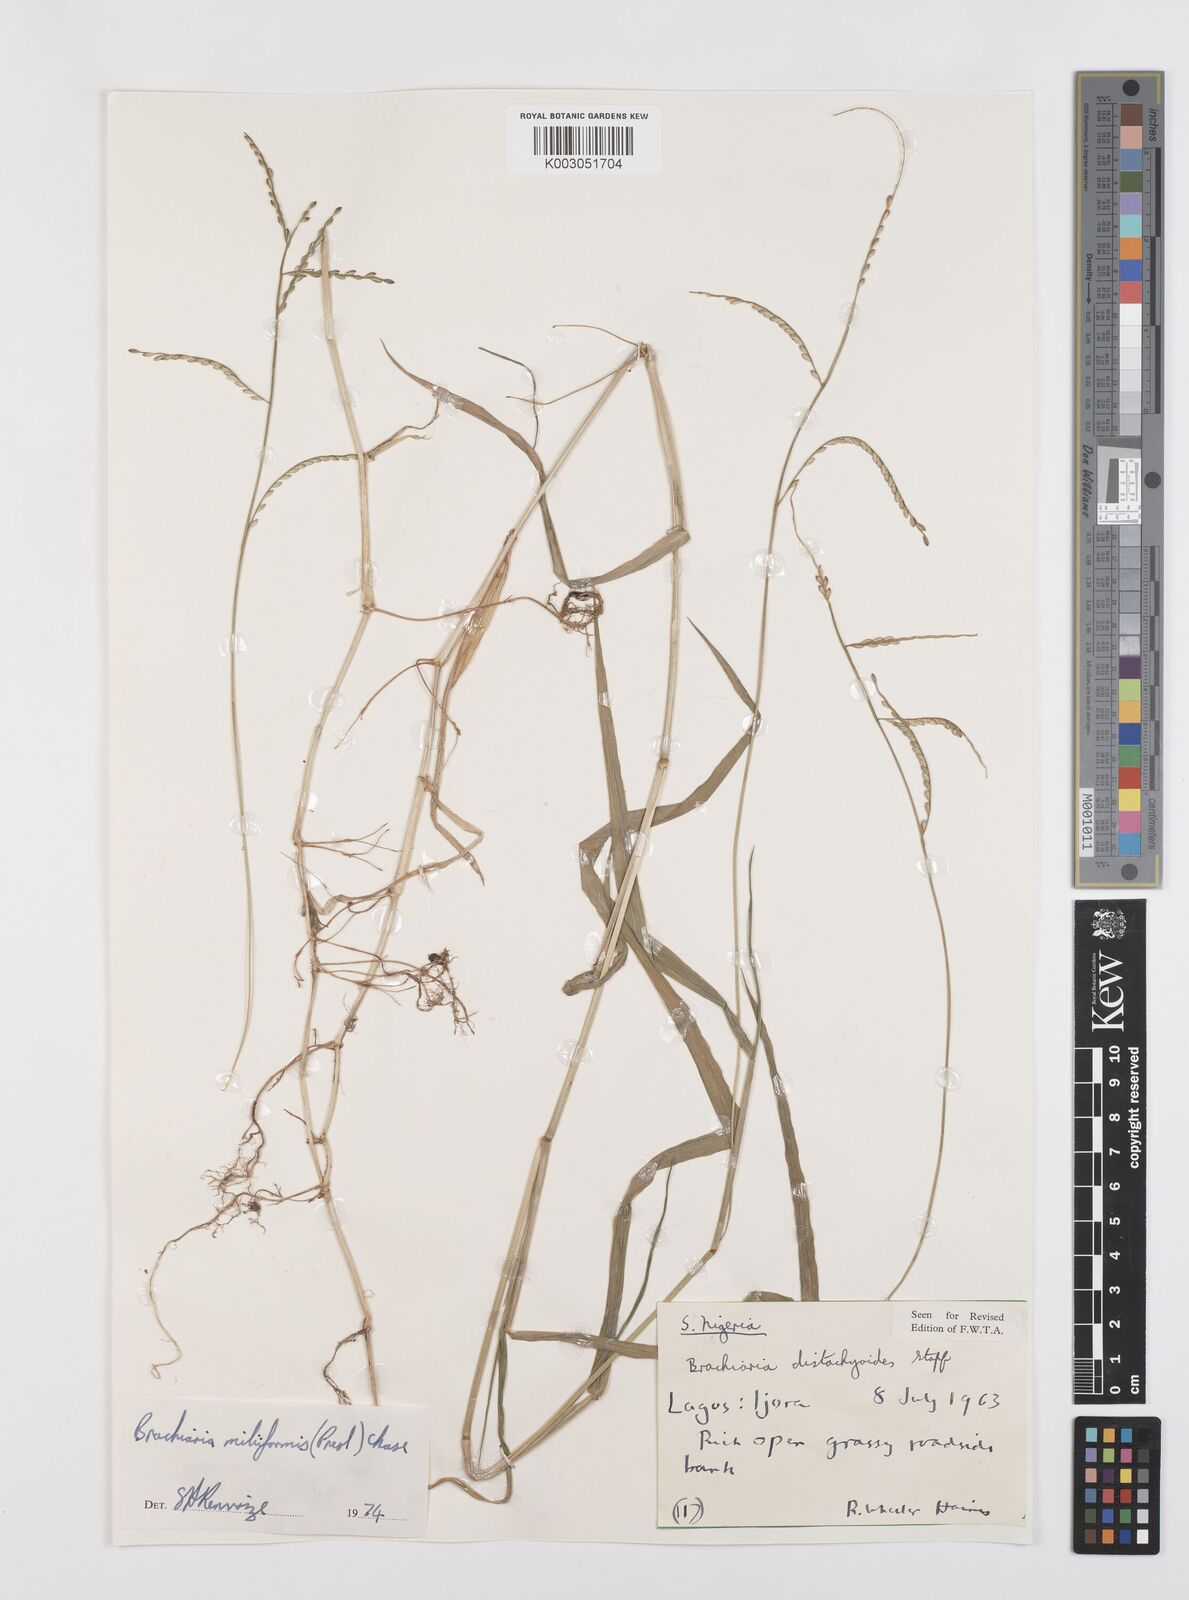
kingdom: Plantae
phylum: Tracheophyta
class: Liliopsida
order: Poales
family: Poaceae
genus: Urochloa
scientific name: Urochloa subquadripara
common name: Armgrass millet
